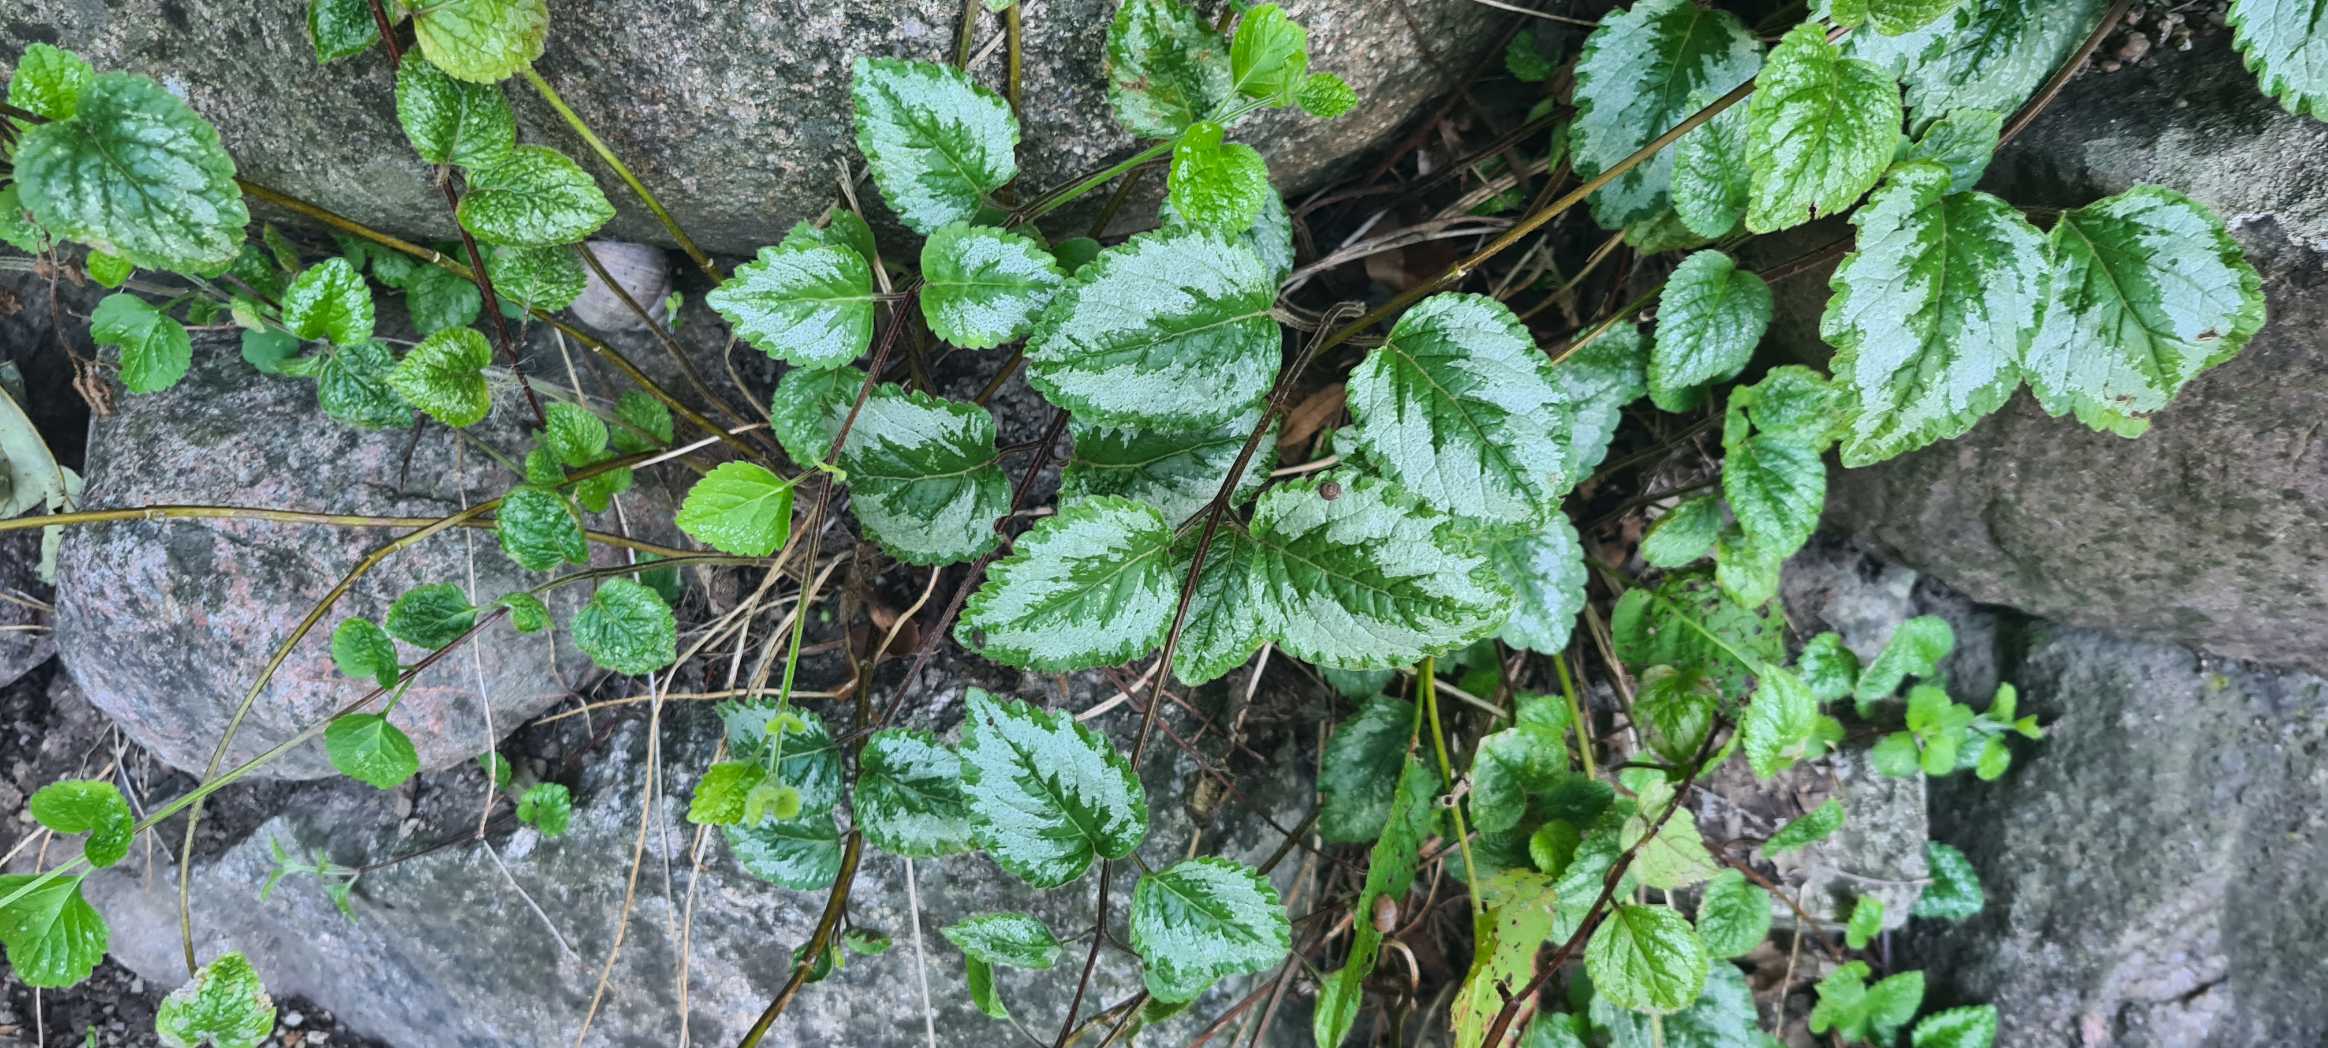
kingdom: Plantae
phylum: Tracheophyta
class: Magnoliopsida
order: Lamiales
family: Lamiaceae
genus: Lamium
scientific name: Lamium galeobdolon
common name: Have-guldnælde
